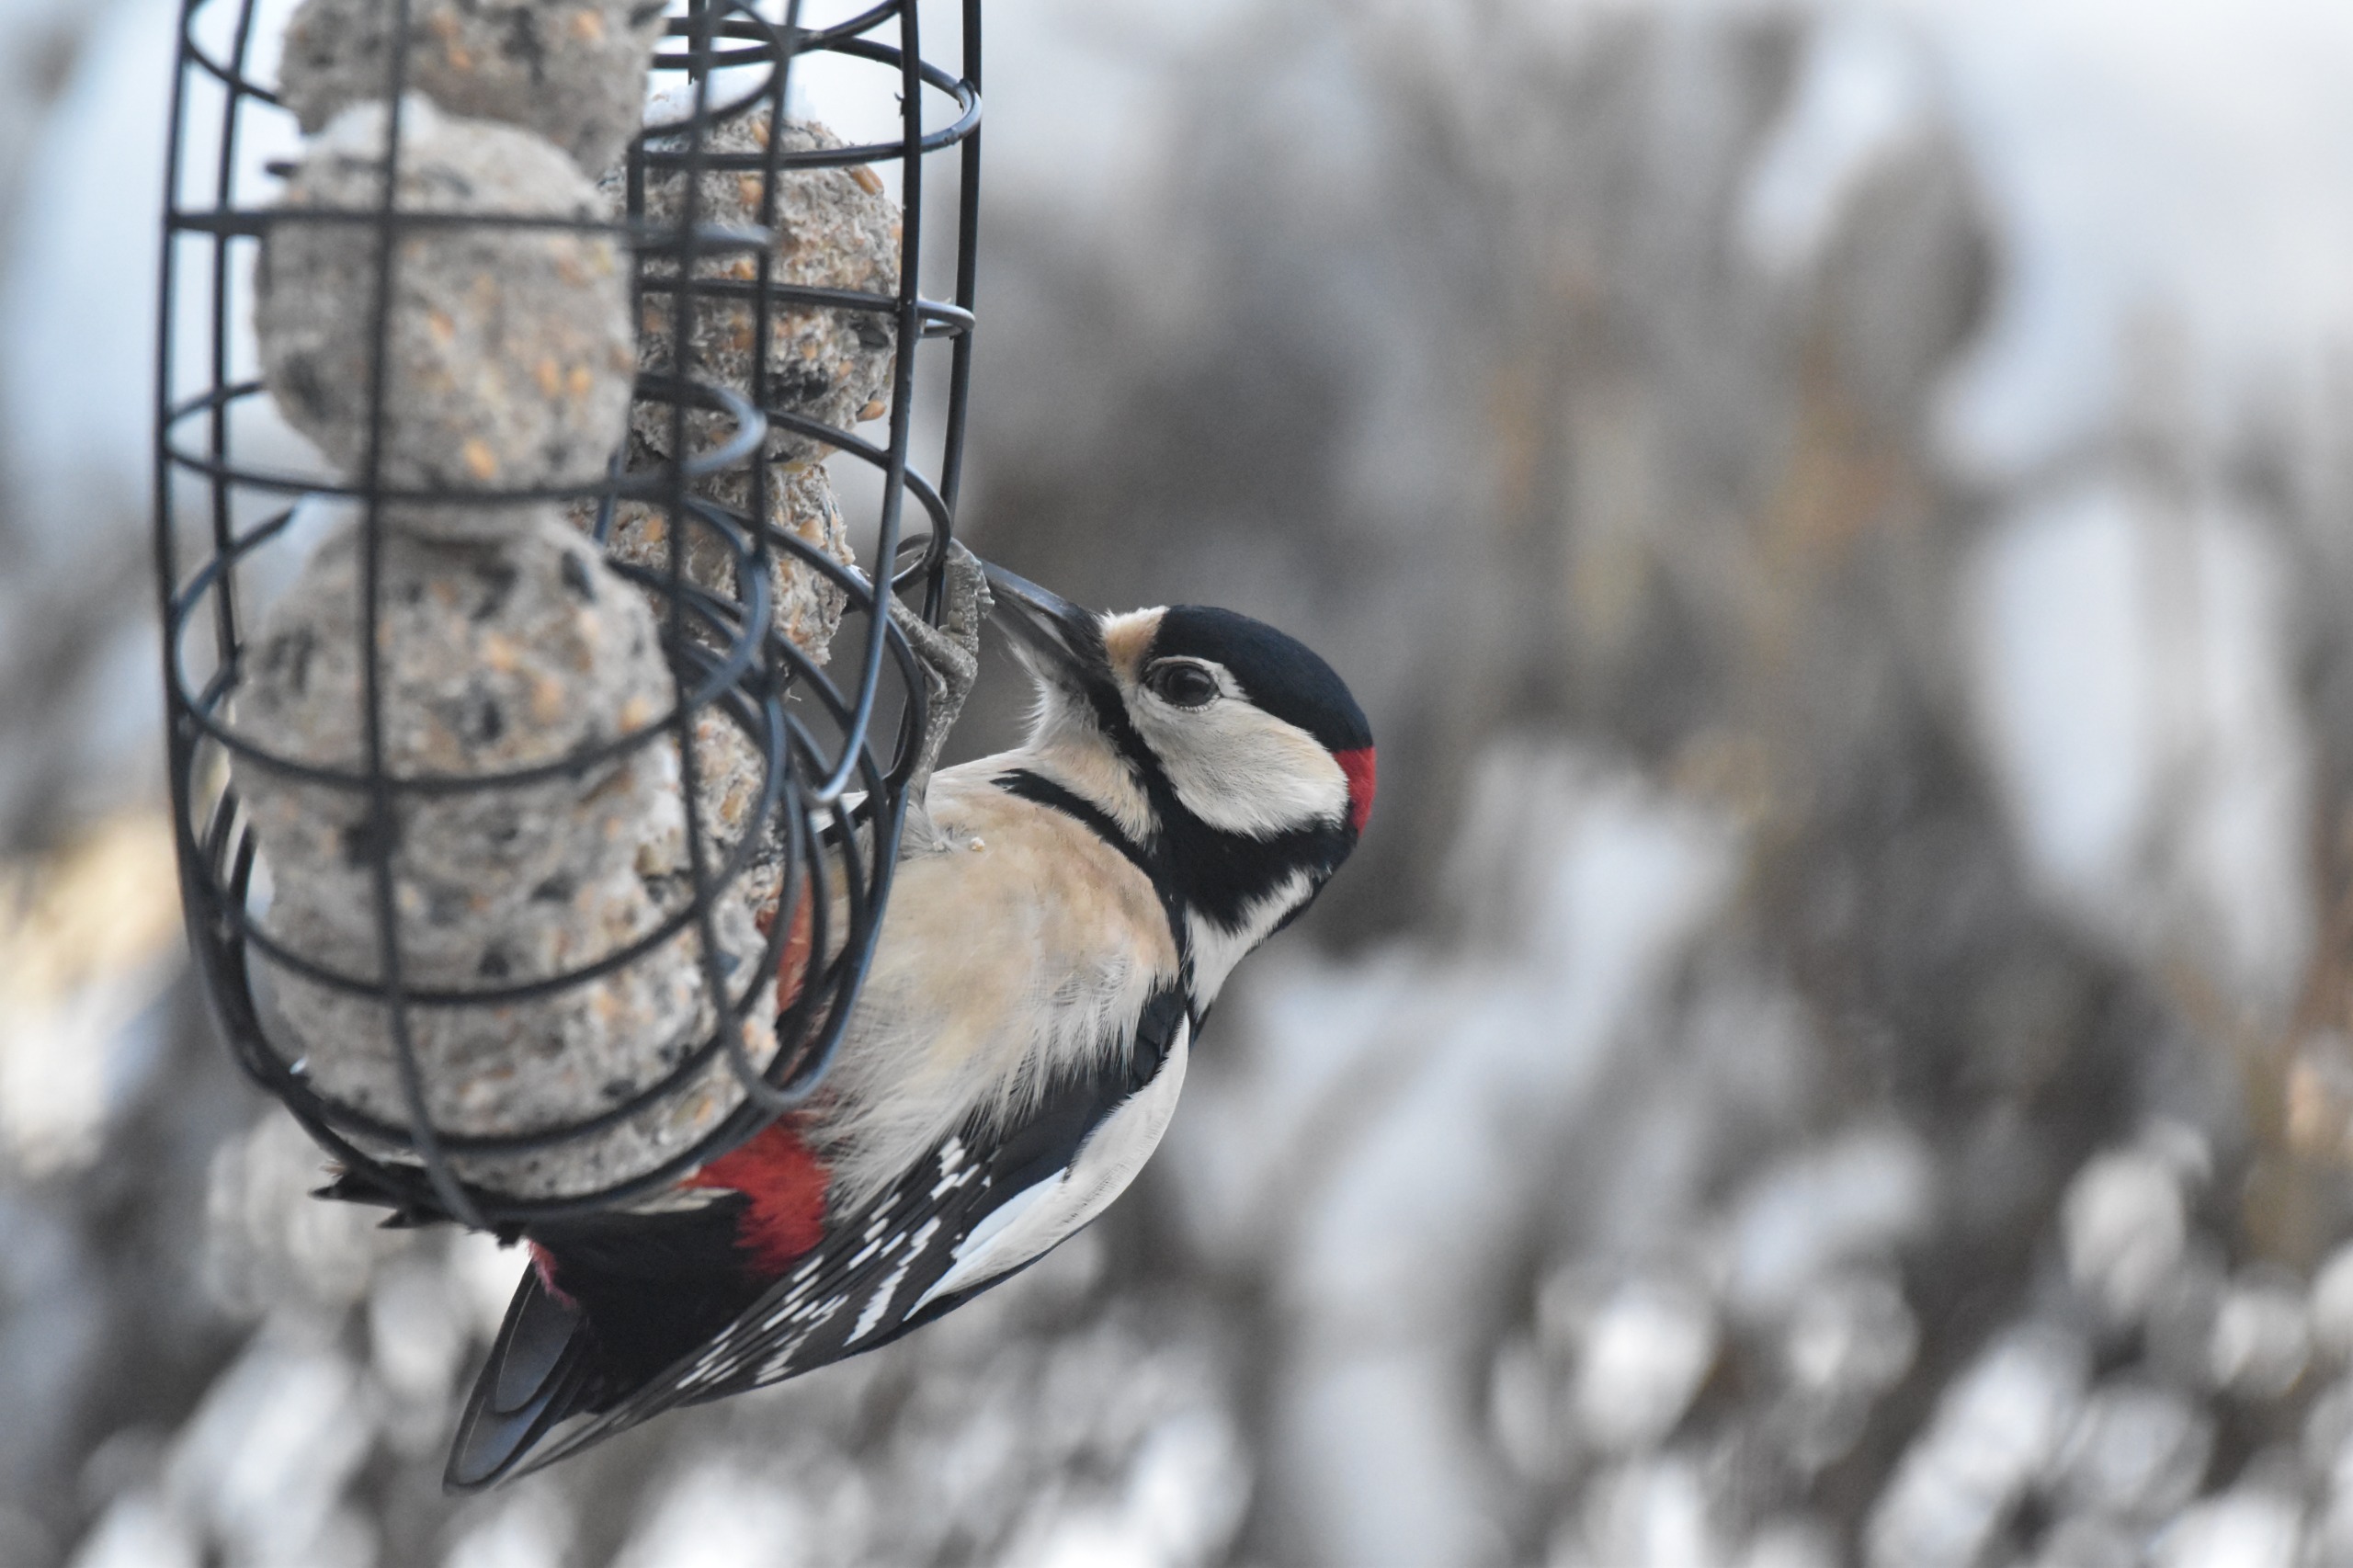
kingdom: Animalia
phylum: Chordata
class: Aves
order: Piciformes
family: Picidae
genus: Dendrocopos
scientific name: Dendrocopos major
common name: Stor flagspætte
